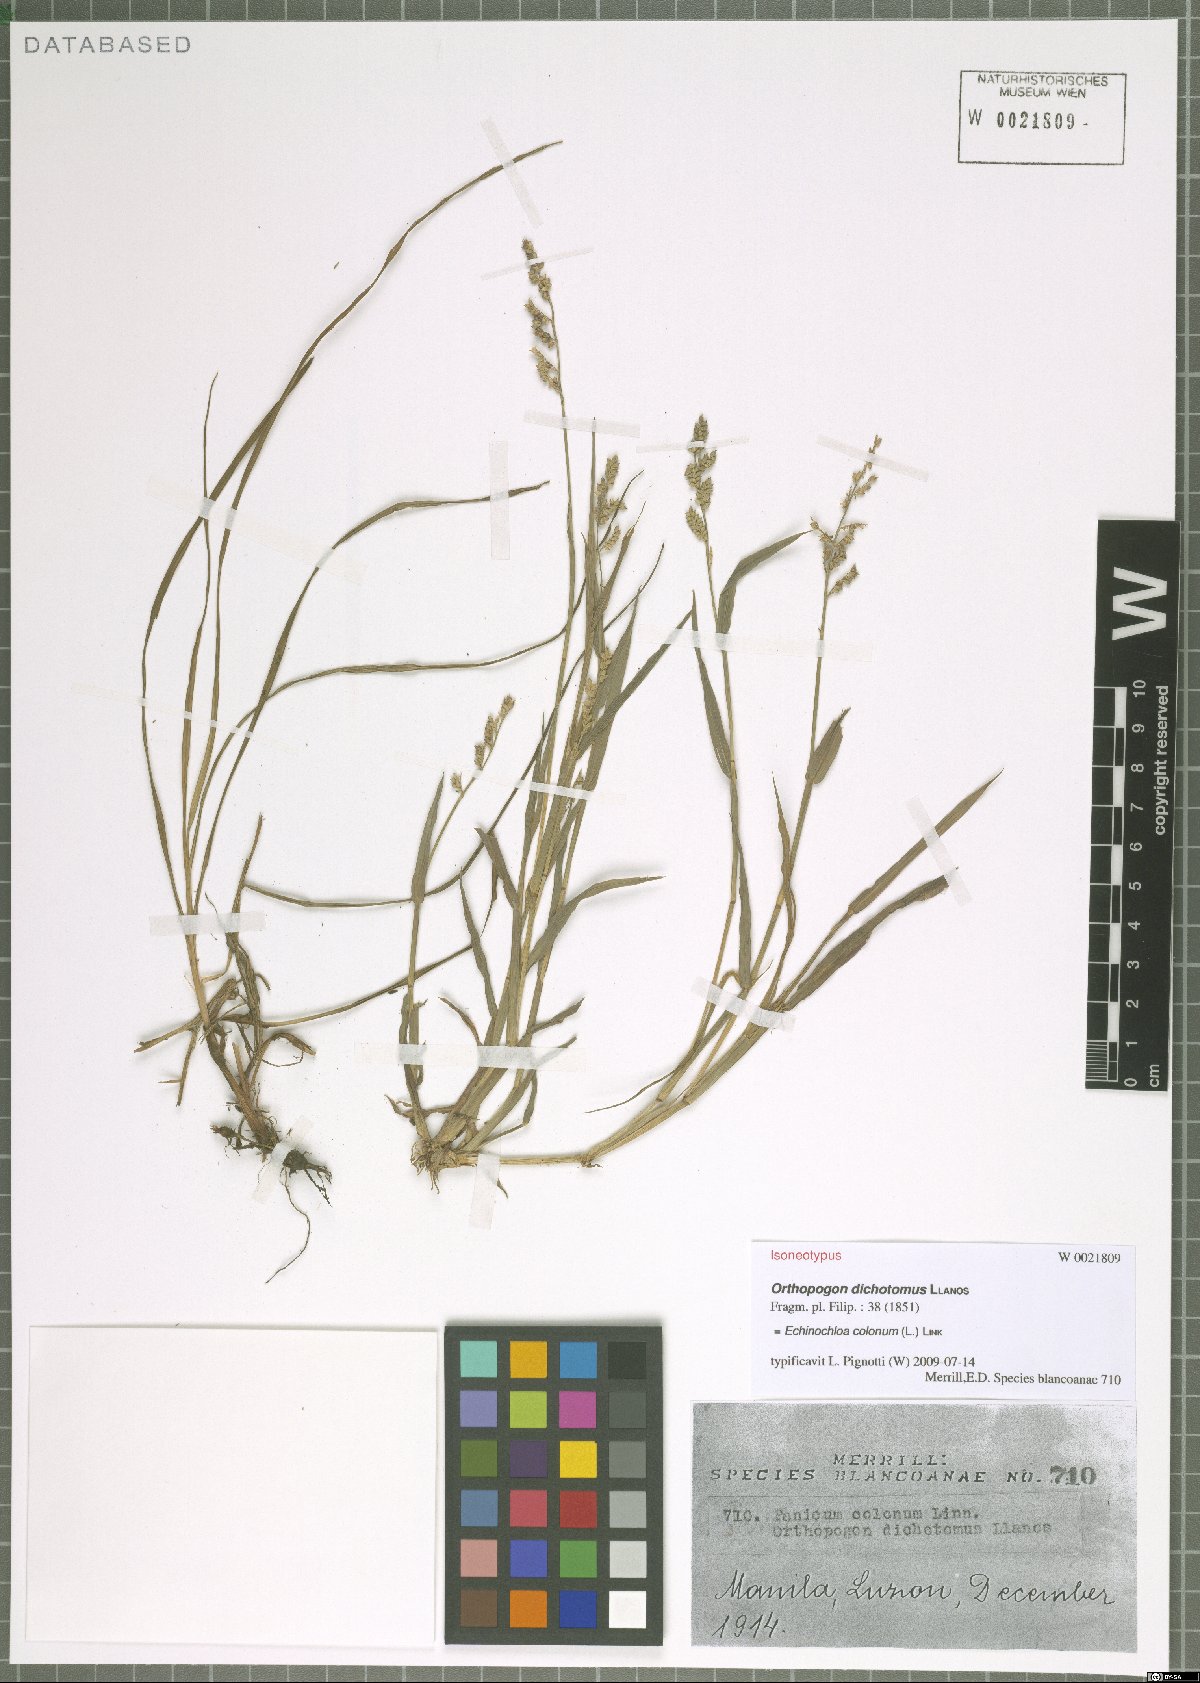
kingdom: Plantae
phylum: Tracheophyta
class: Liliopsida
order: Poales
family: Poaceae
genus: Echinochloa
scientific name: Echinochloa colonum
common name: Jungle rice
